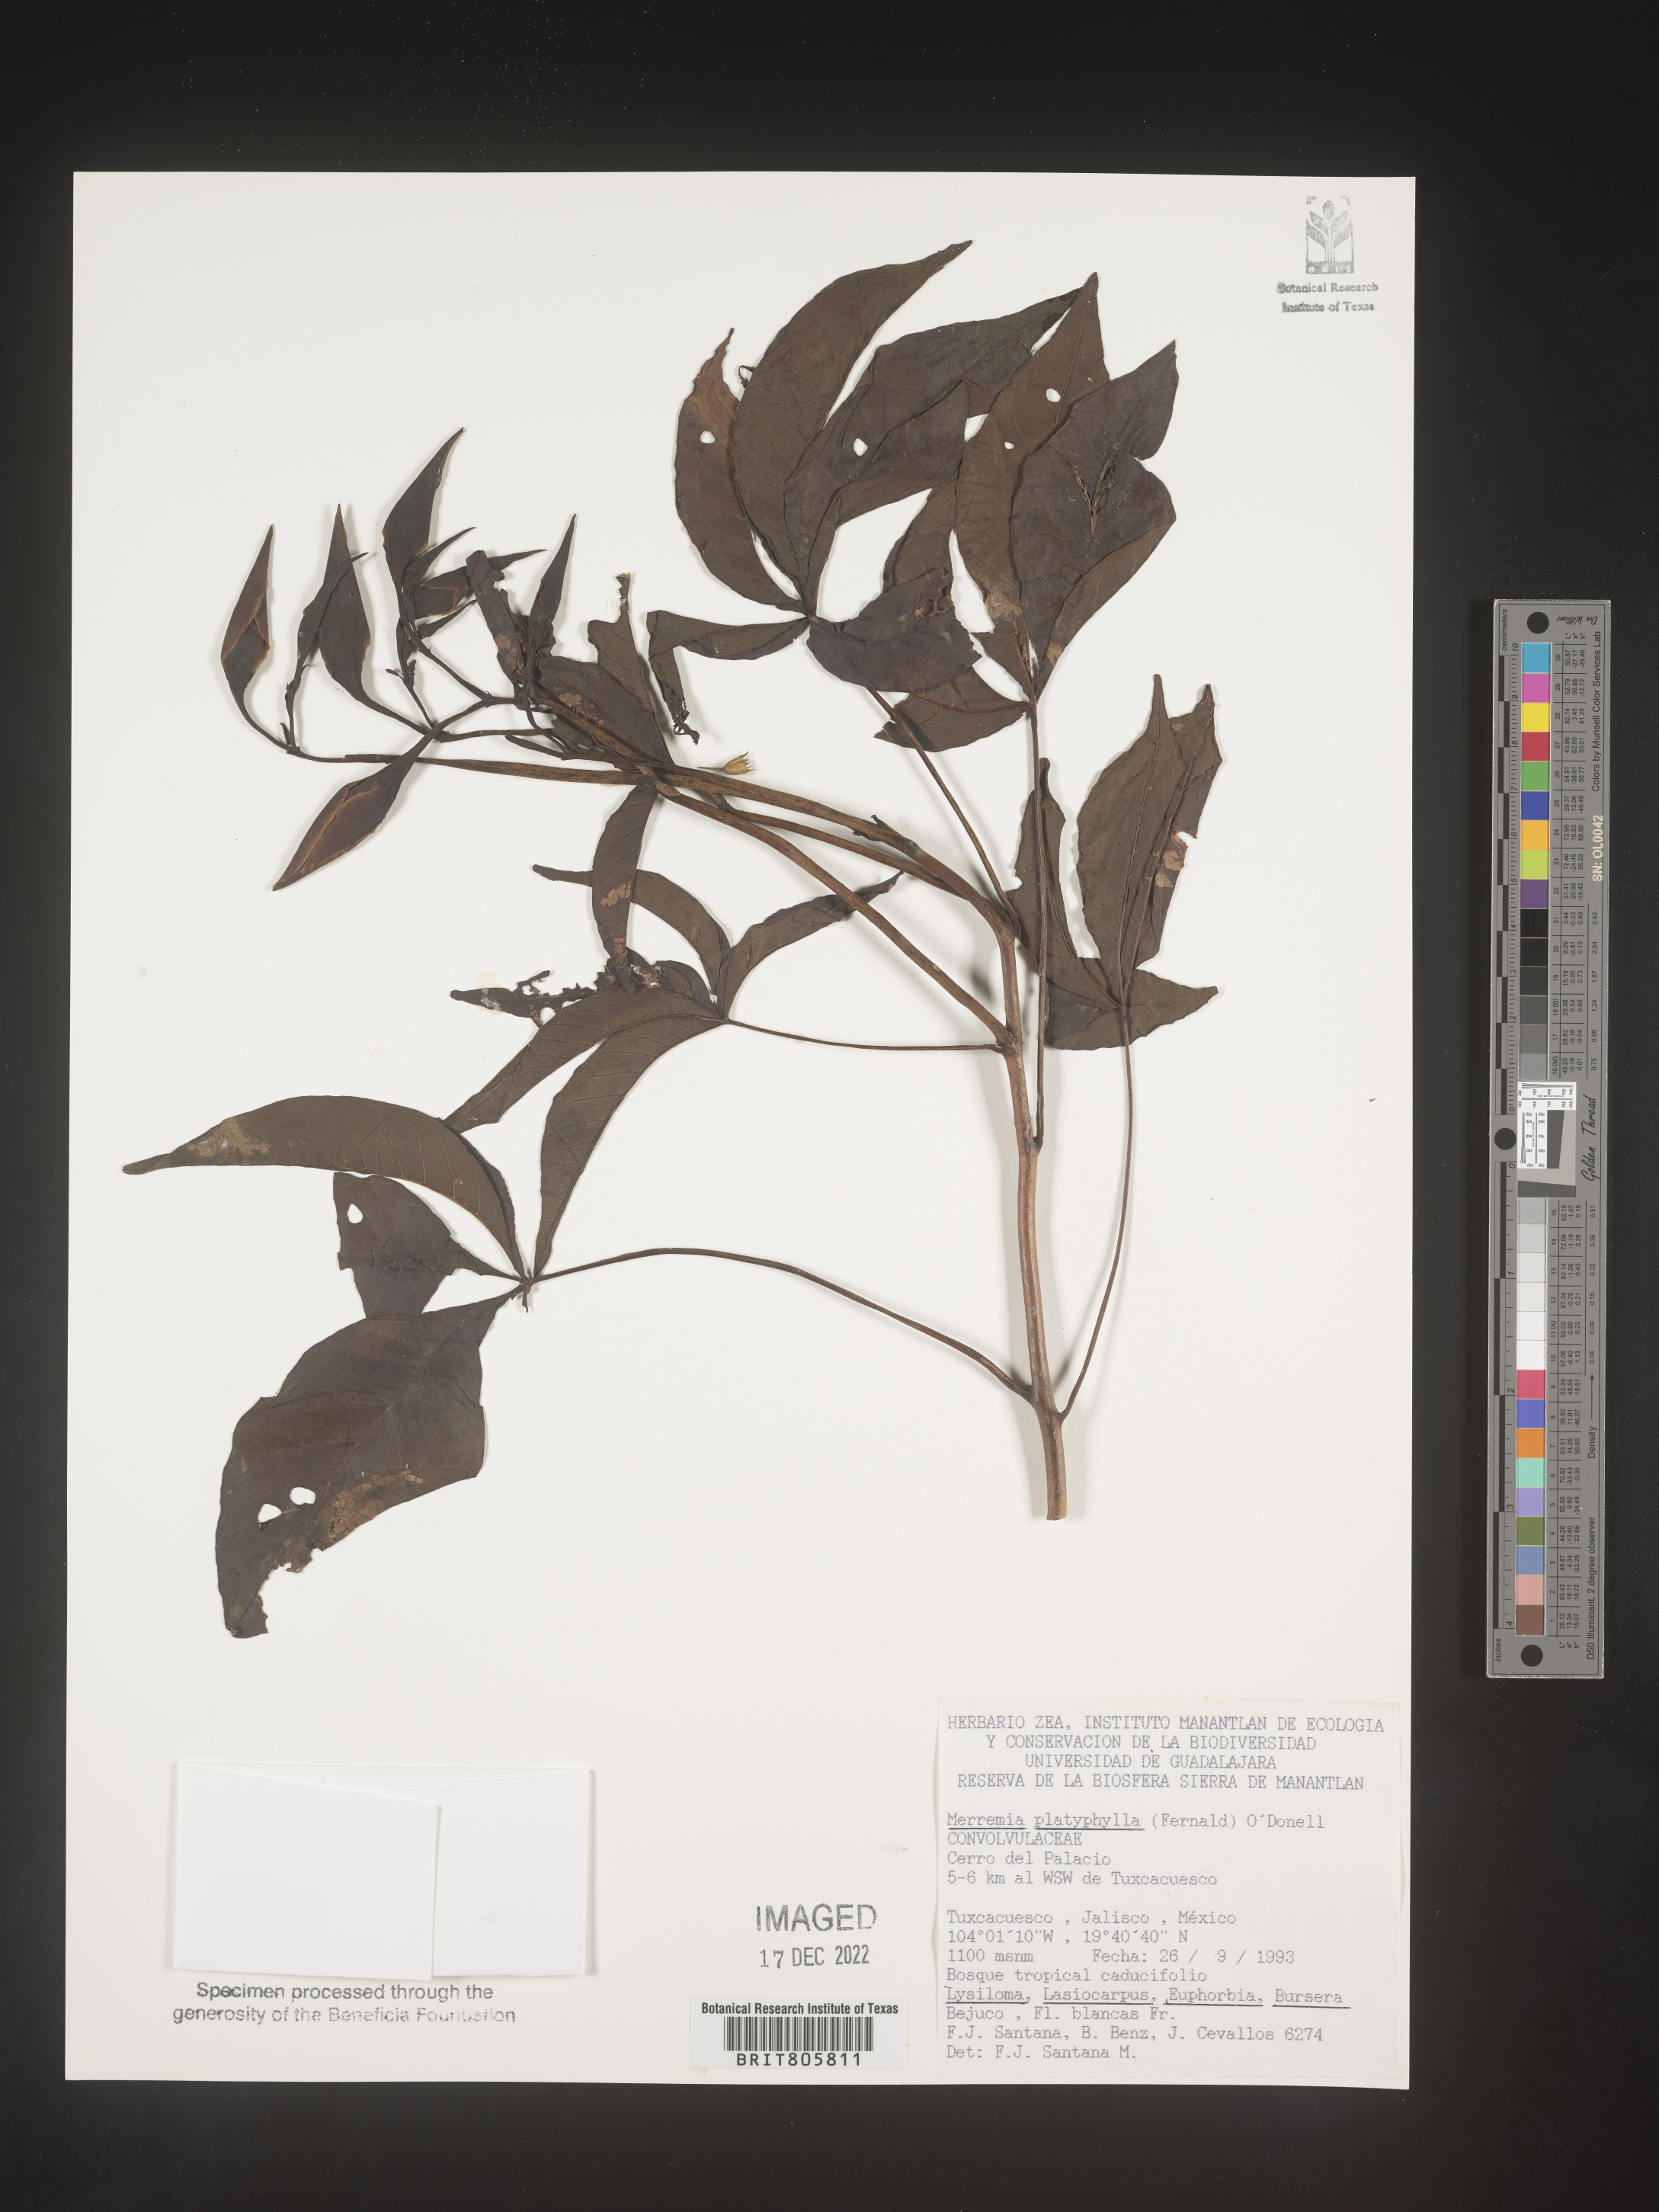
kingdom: Plantae
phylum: Tracheophyta
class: Magnoliopsida
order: Solanales
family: Convolvulaceae
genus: Merremia
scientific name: Merremia
